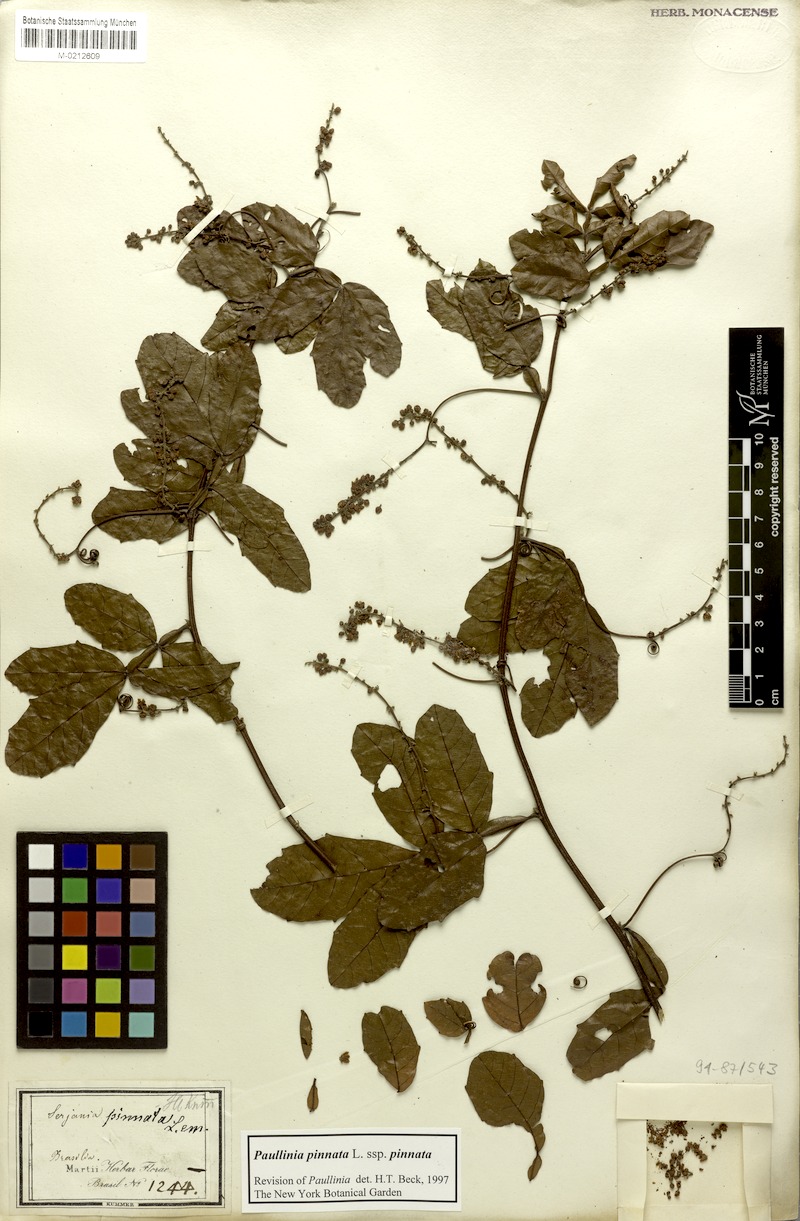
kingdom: Plantae
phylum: Tracheophyta
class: Magnoliopsida
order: Sapindales
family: Sapindaceae
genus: Paullinia
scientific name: Paullinia pinnata
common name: Barbasco
